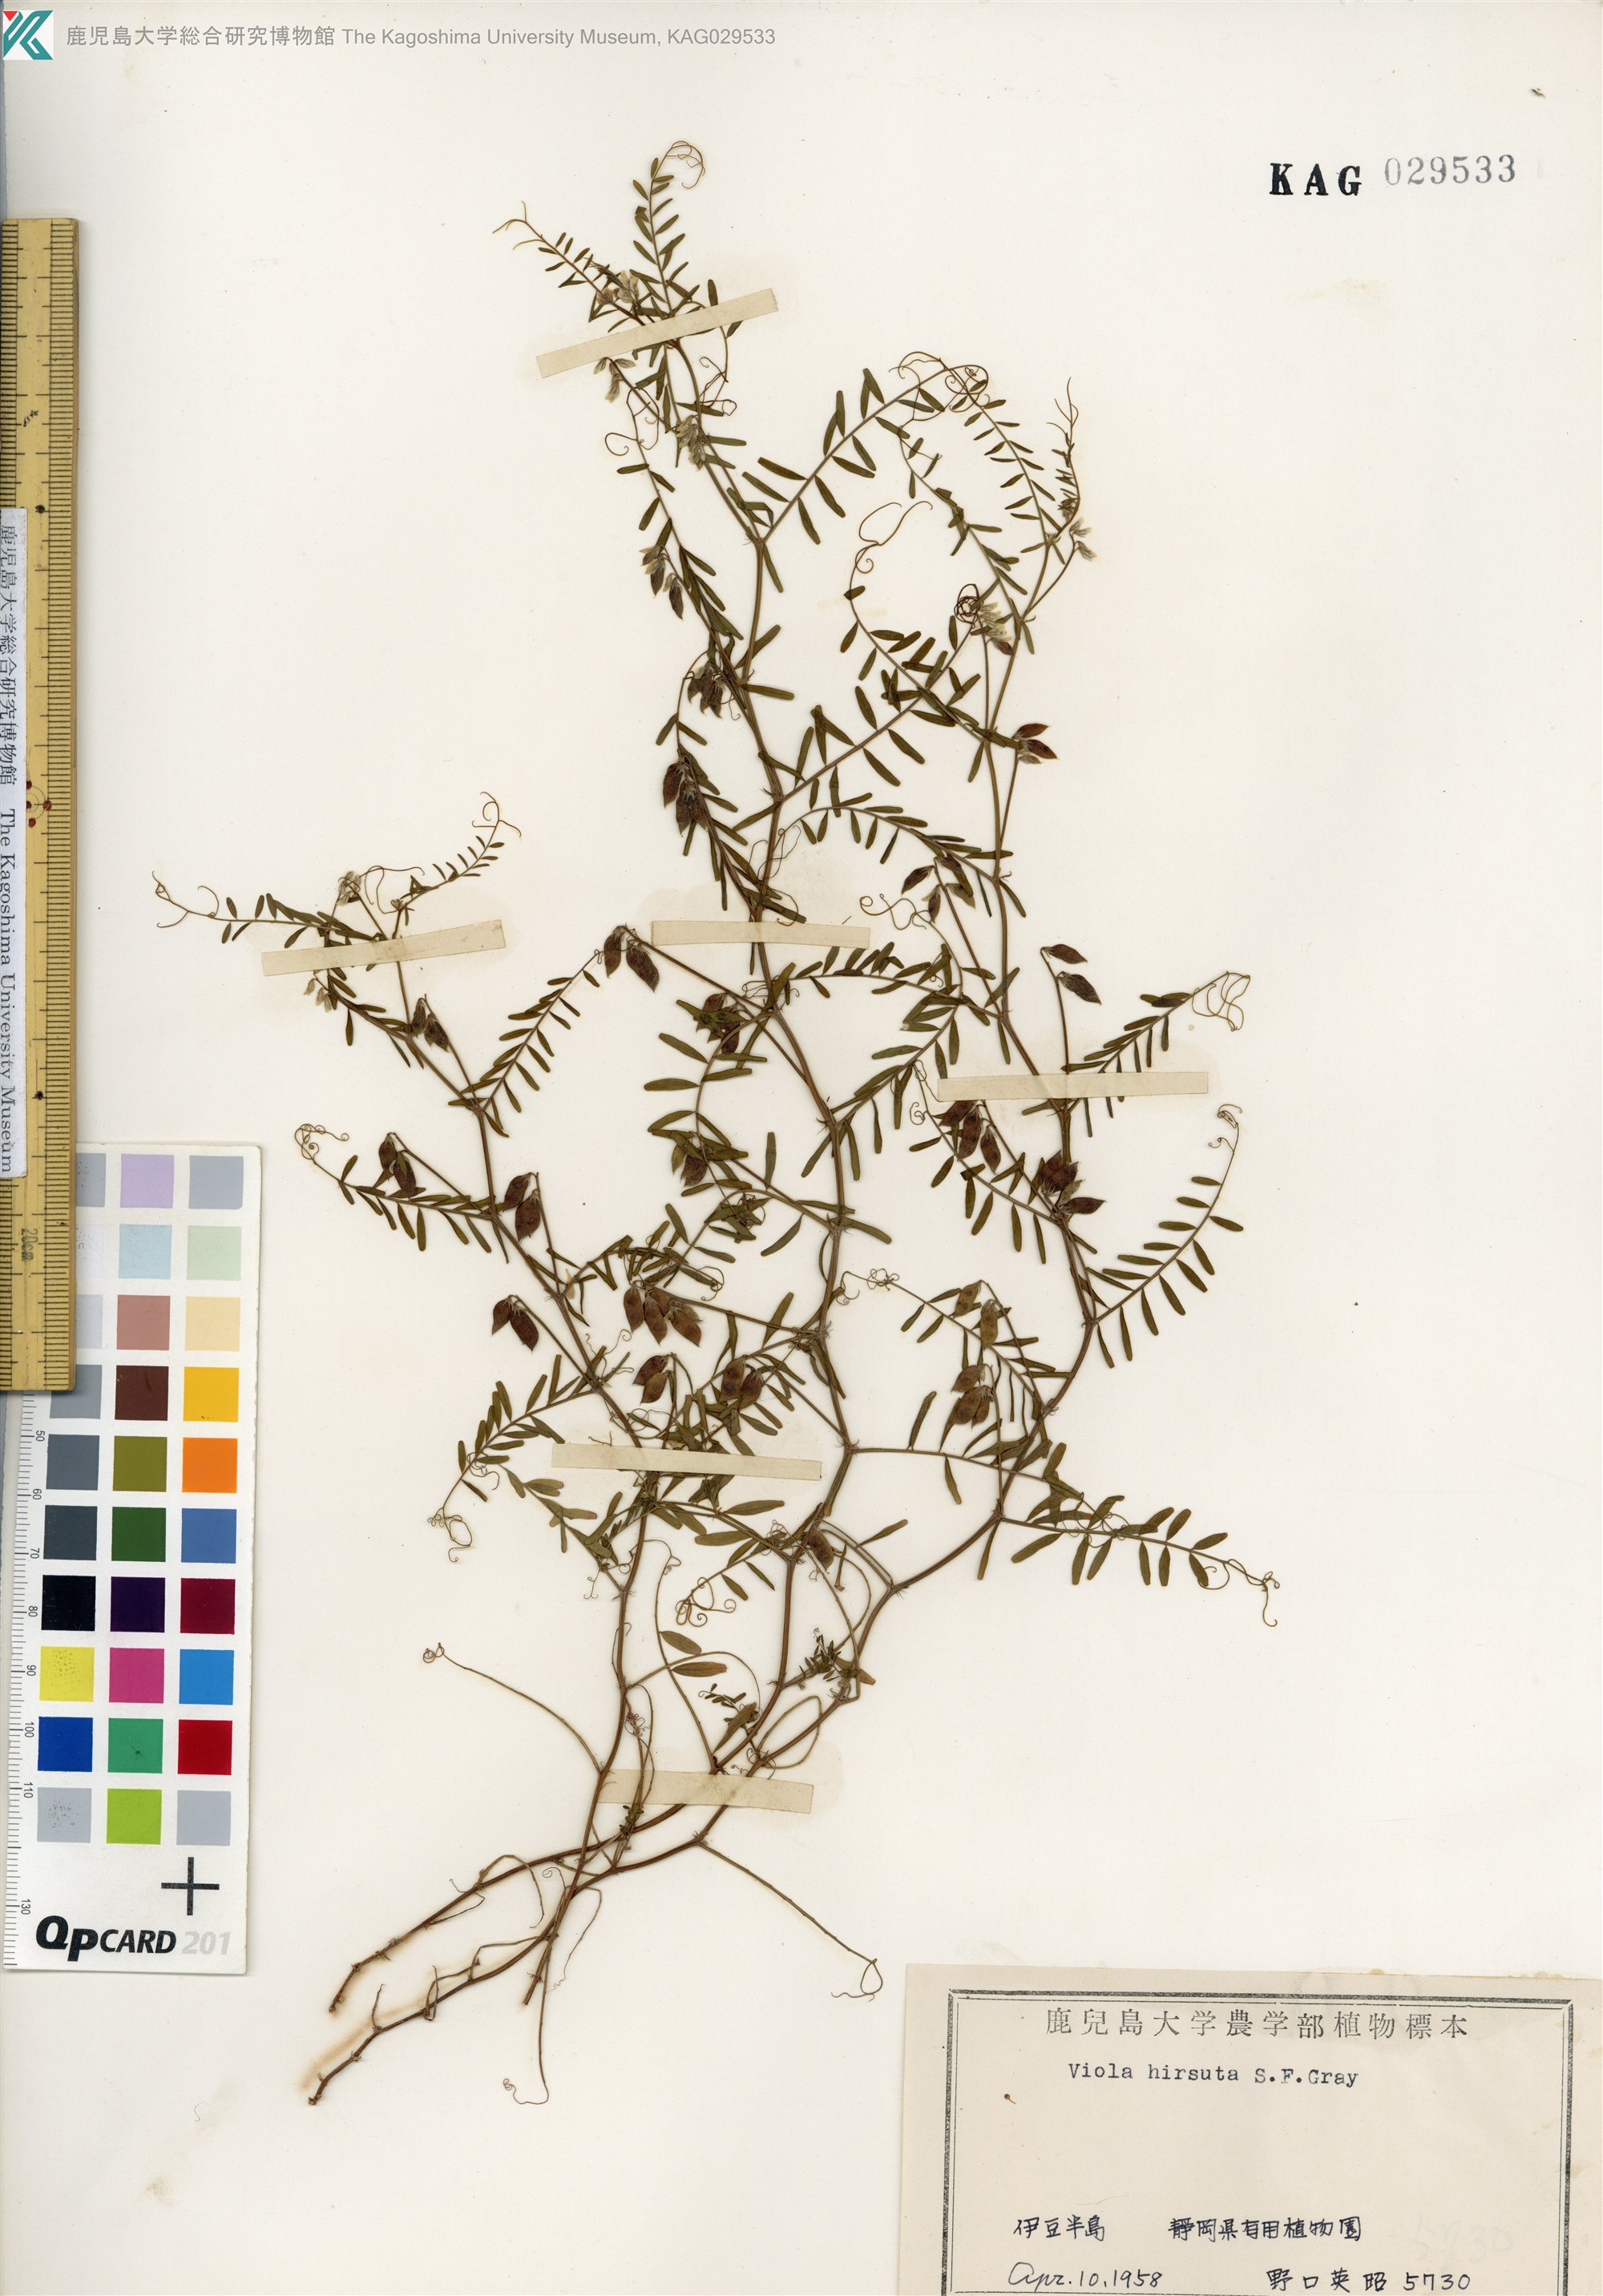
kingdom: Plantae
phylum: Tracheophyta
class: Magnoliopsida
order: Fabales
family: Fabaceae
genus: Vicia
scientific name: Vicia hirsuta
